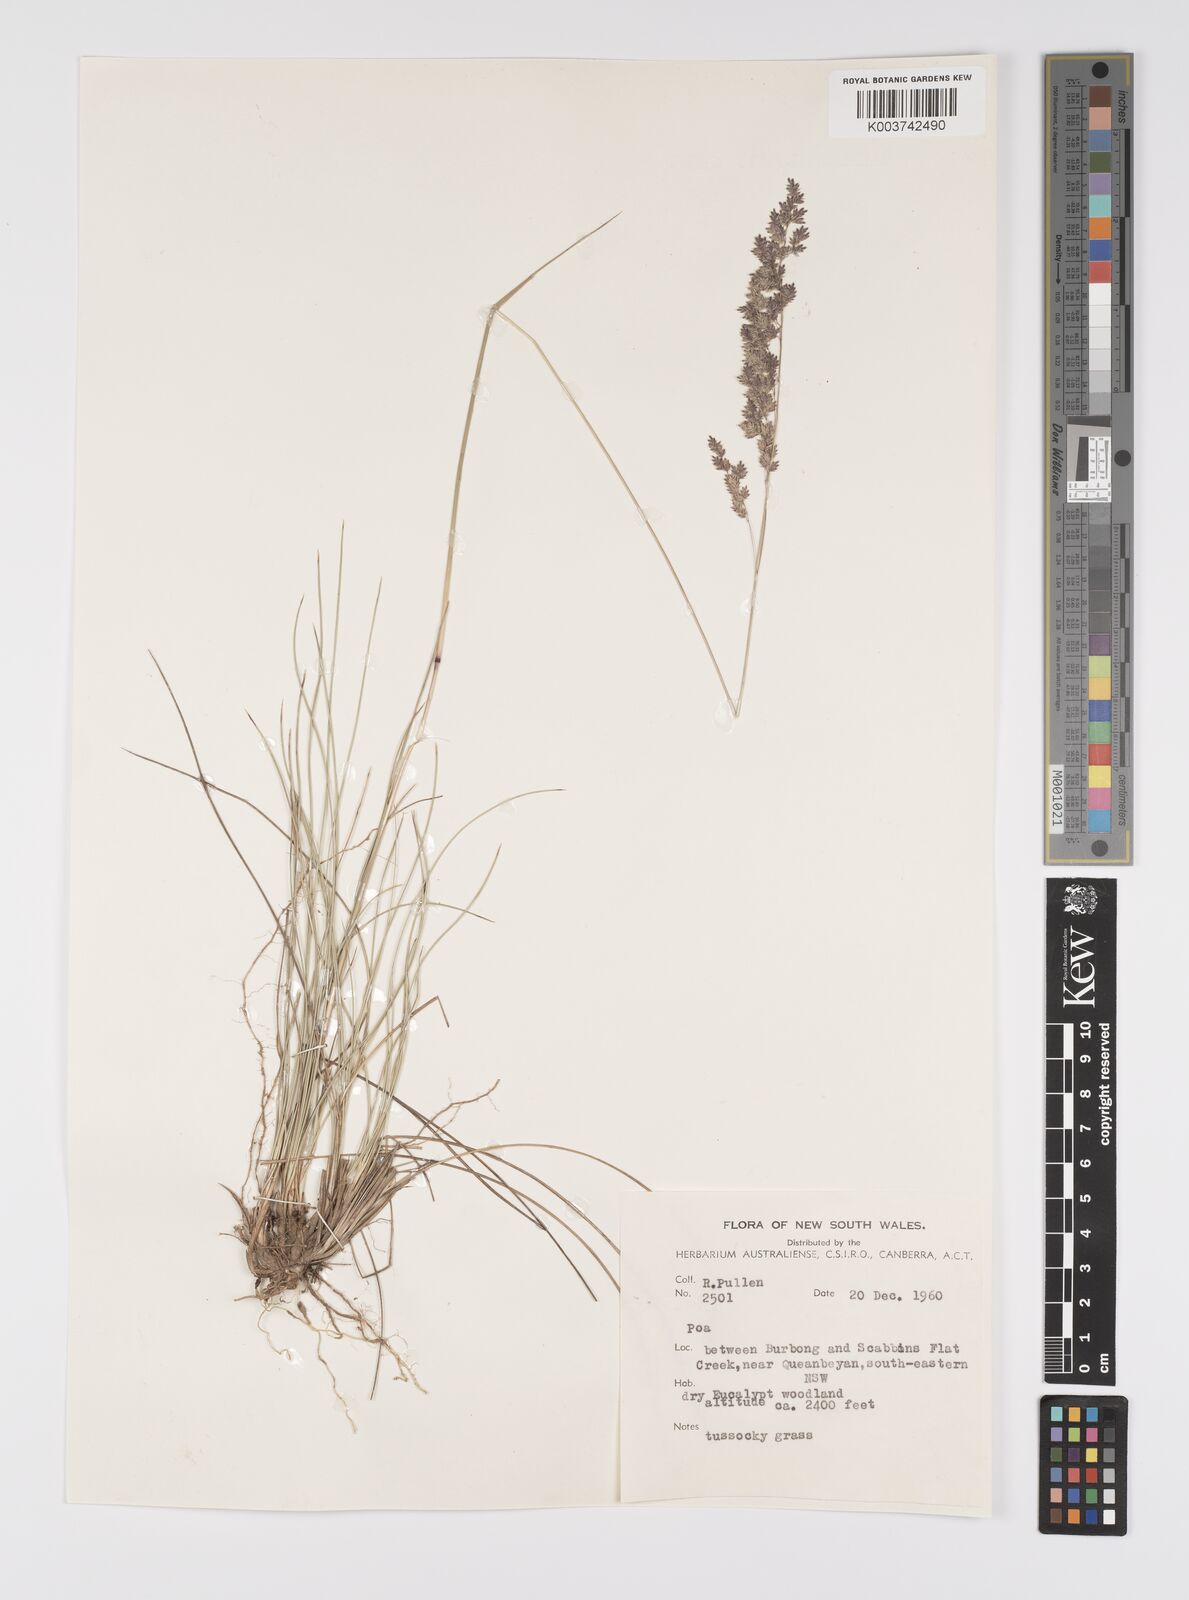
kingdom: Plantae
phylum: Tracheophyta
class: Liliopsida
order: Poales
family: Poaceae
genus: Poa
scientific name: Poa
